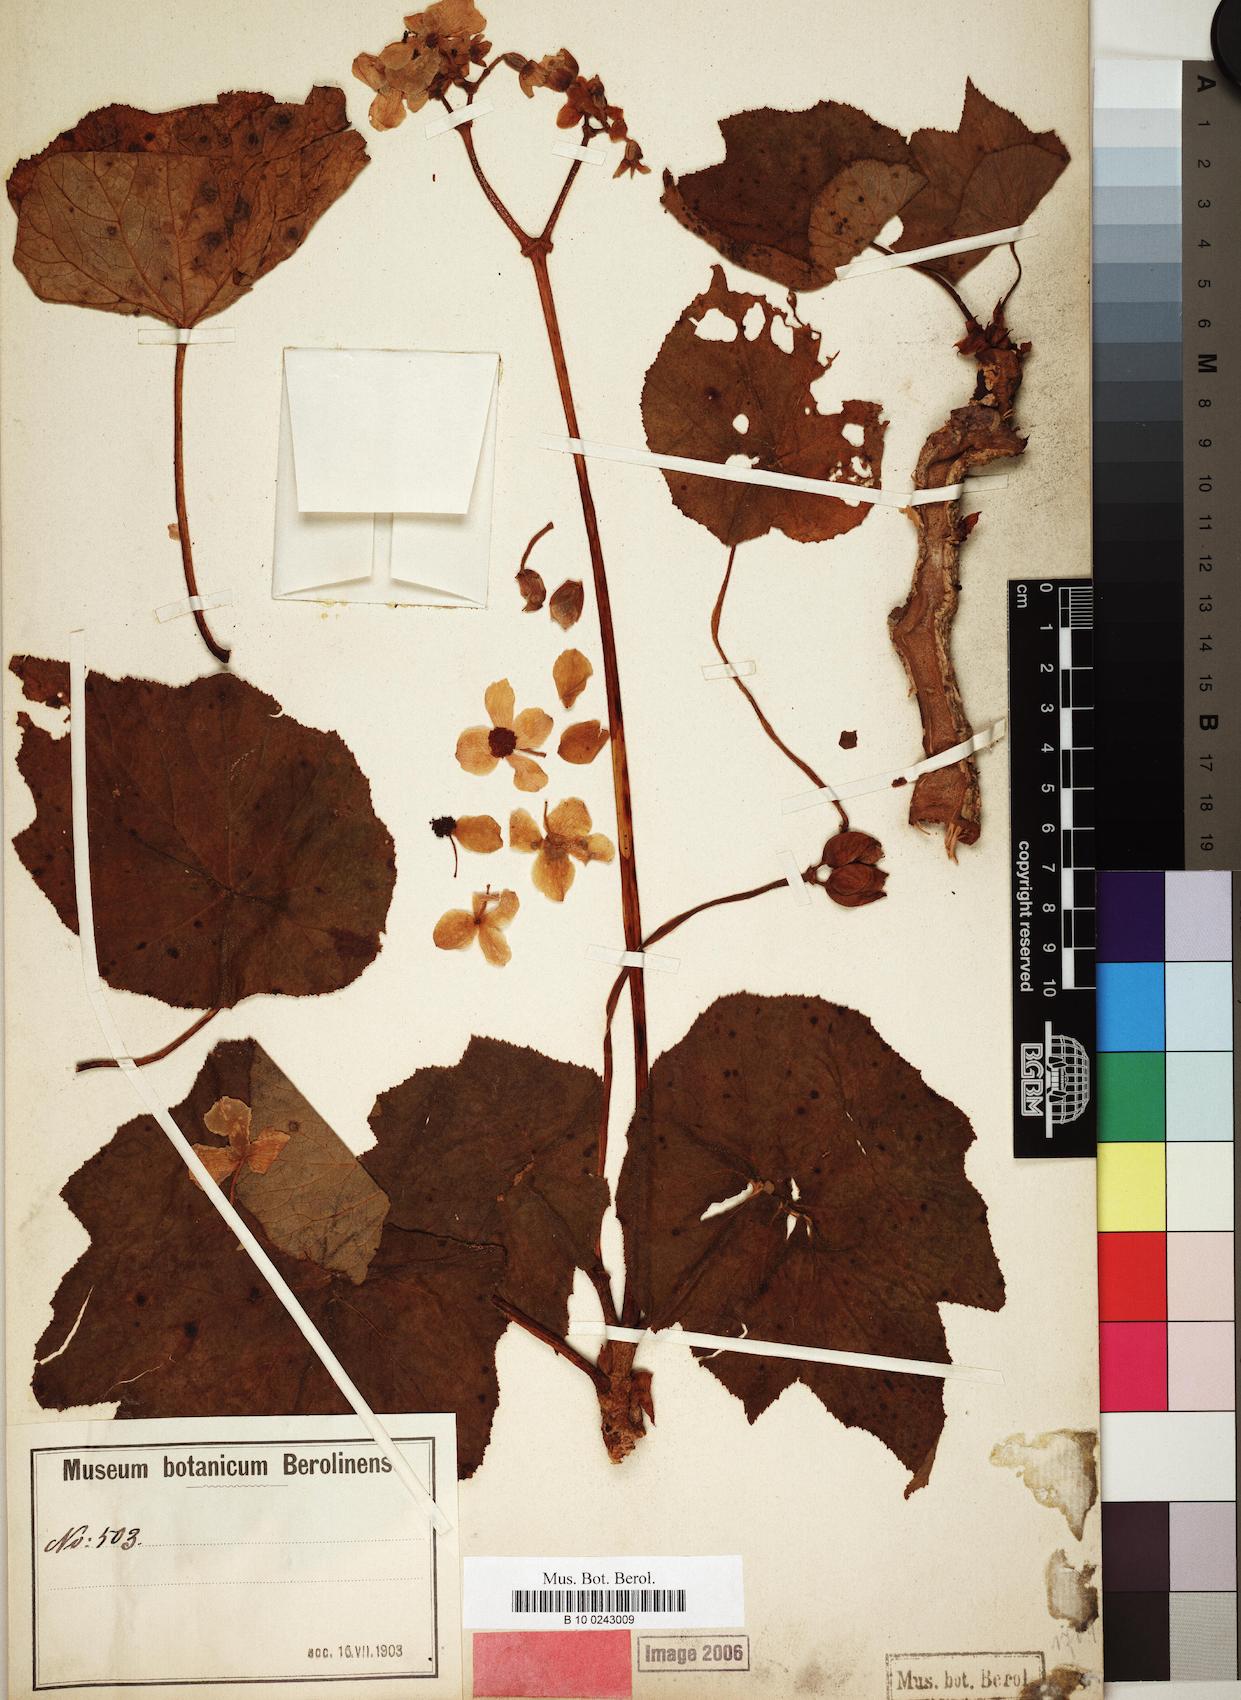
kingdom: Plantae
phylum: Tracheophyta
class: Magnoliopsida
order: Cucurbitales
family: Begoniaceae
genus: Begonia
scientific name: Begonia acerifolia
